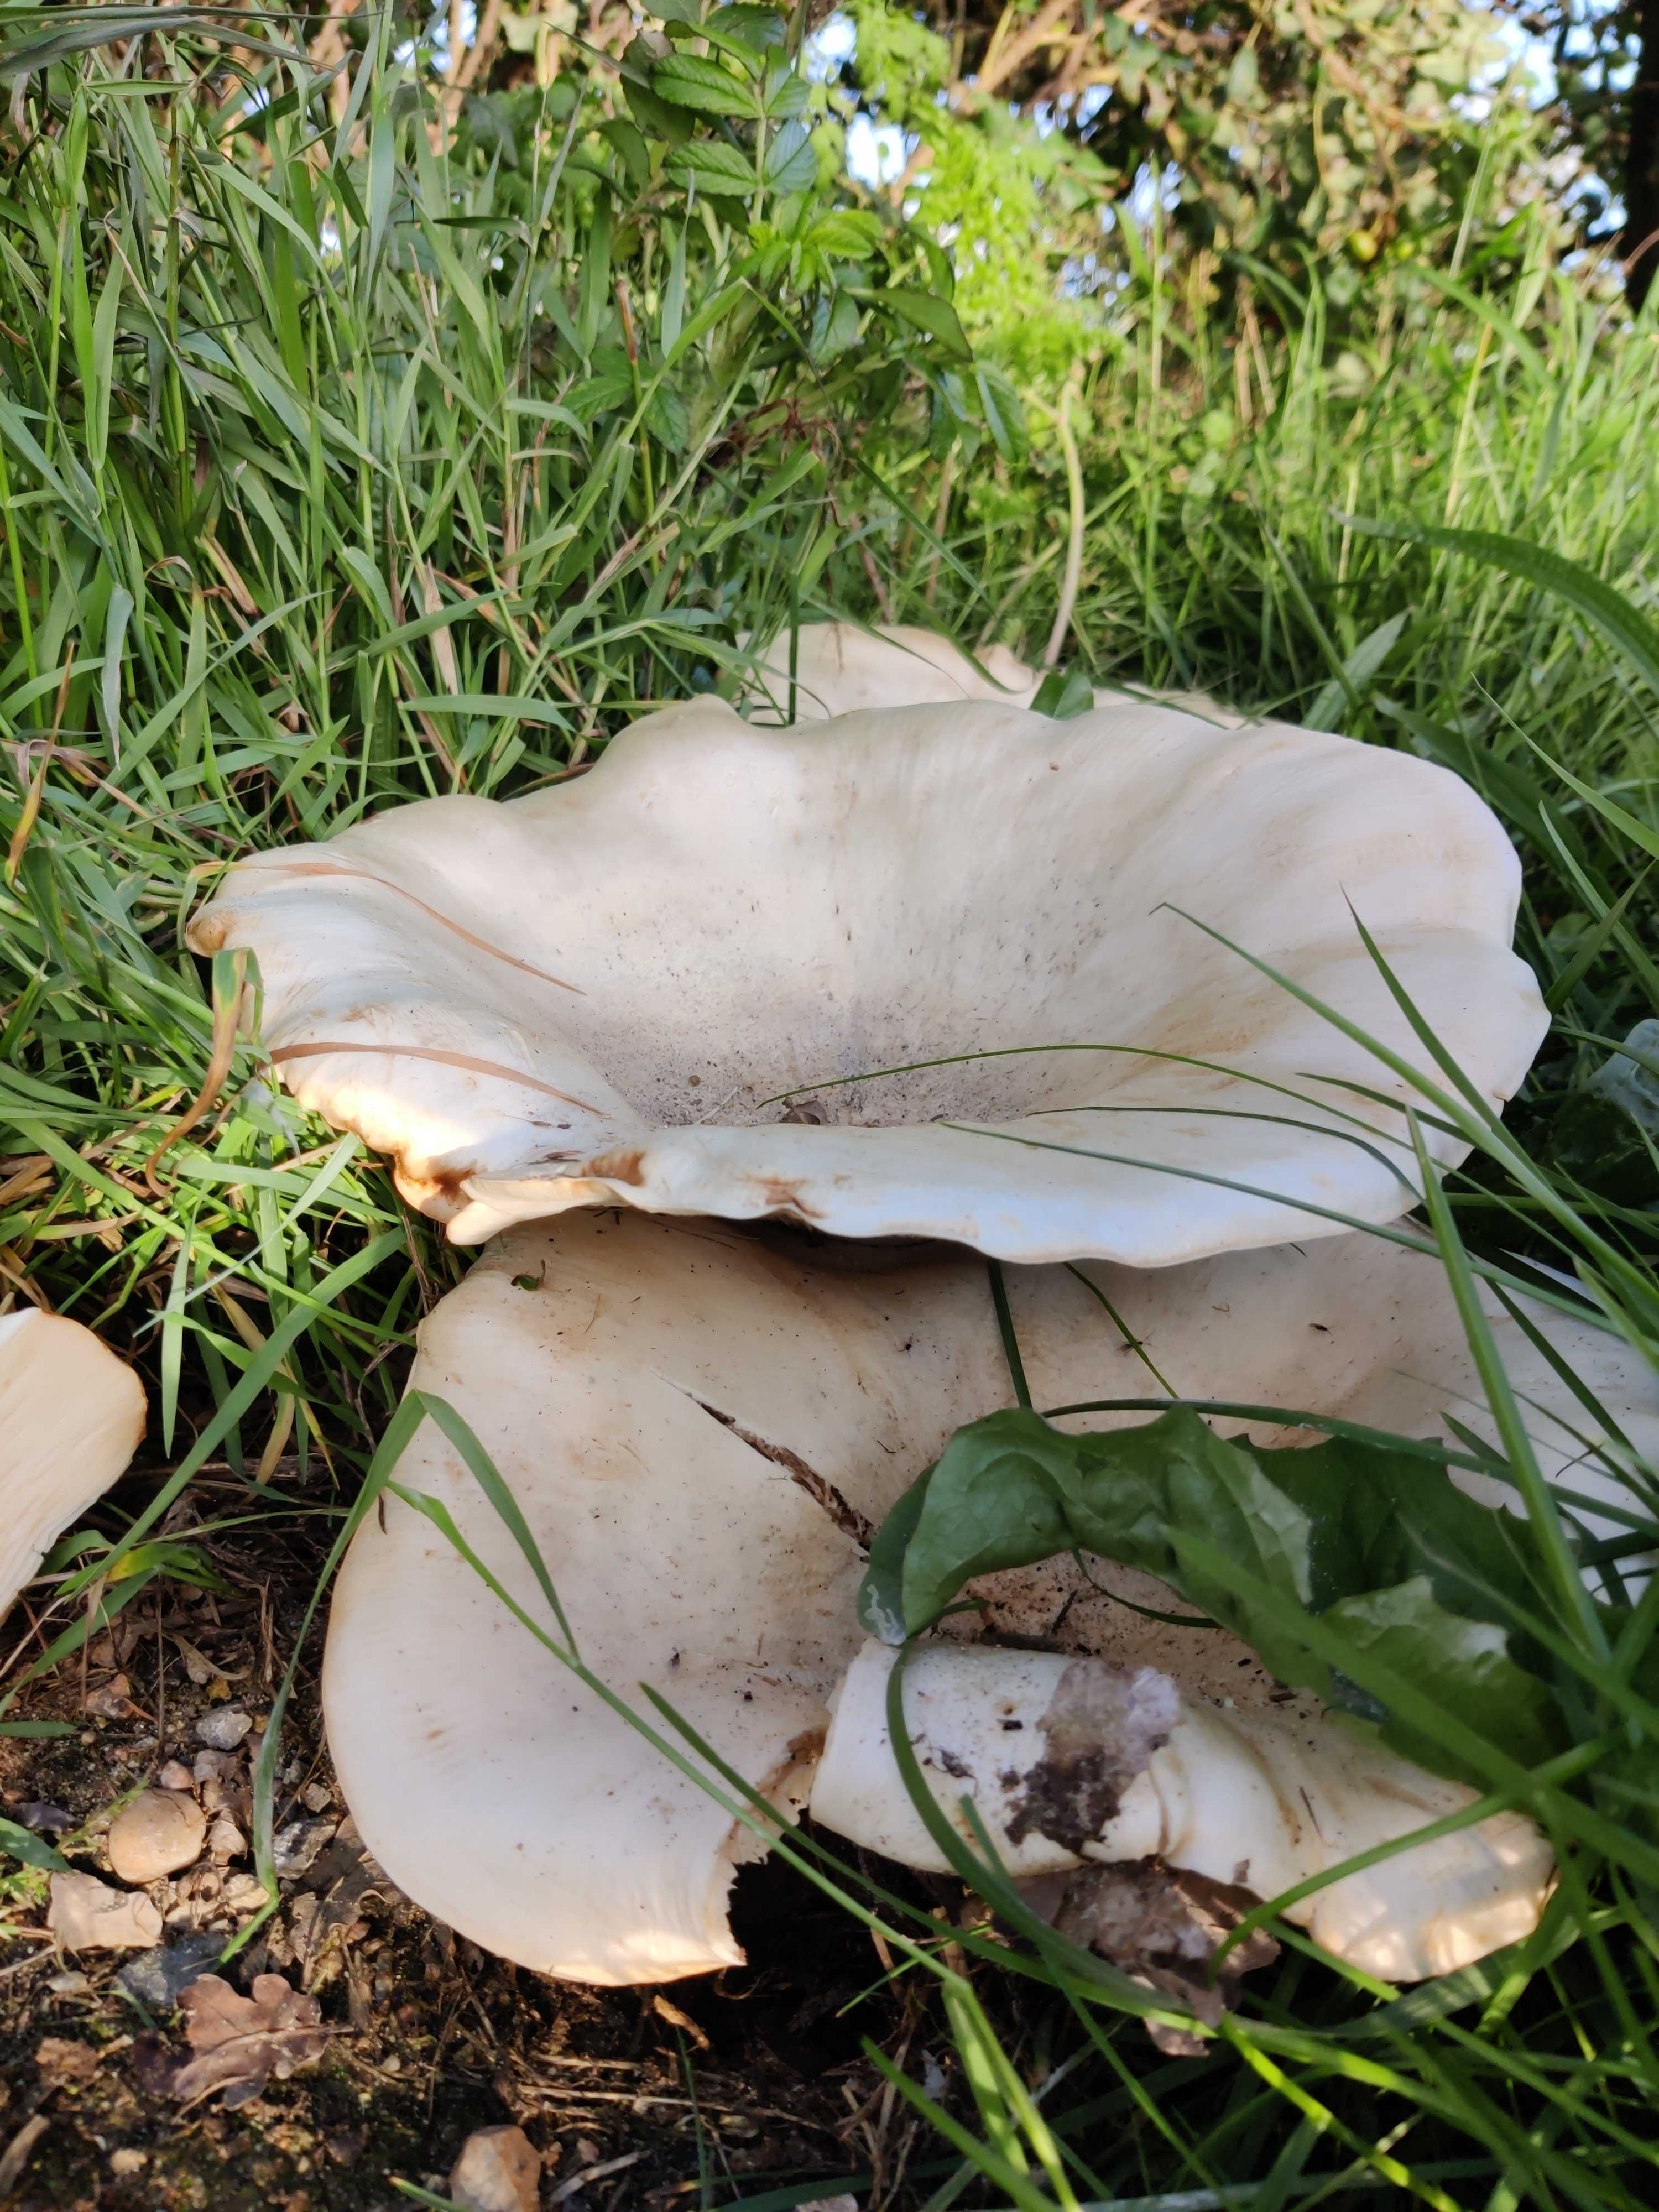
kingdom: Fungi
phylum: Basidiomycota
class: Agaricomycetes
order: Agaricales
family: Tricholomataceae
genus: Aspropaxillus
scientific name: Aspropaxillus giganteus
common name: kæmpe-tragtridderhat
